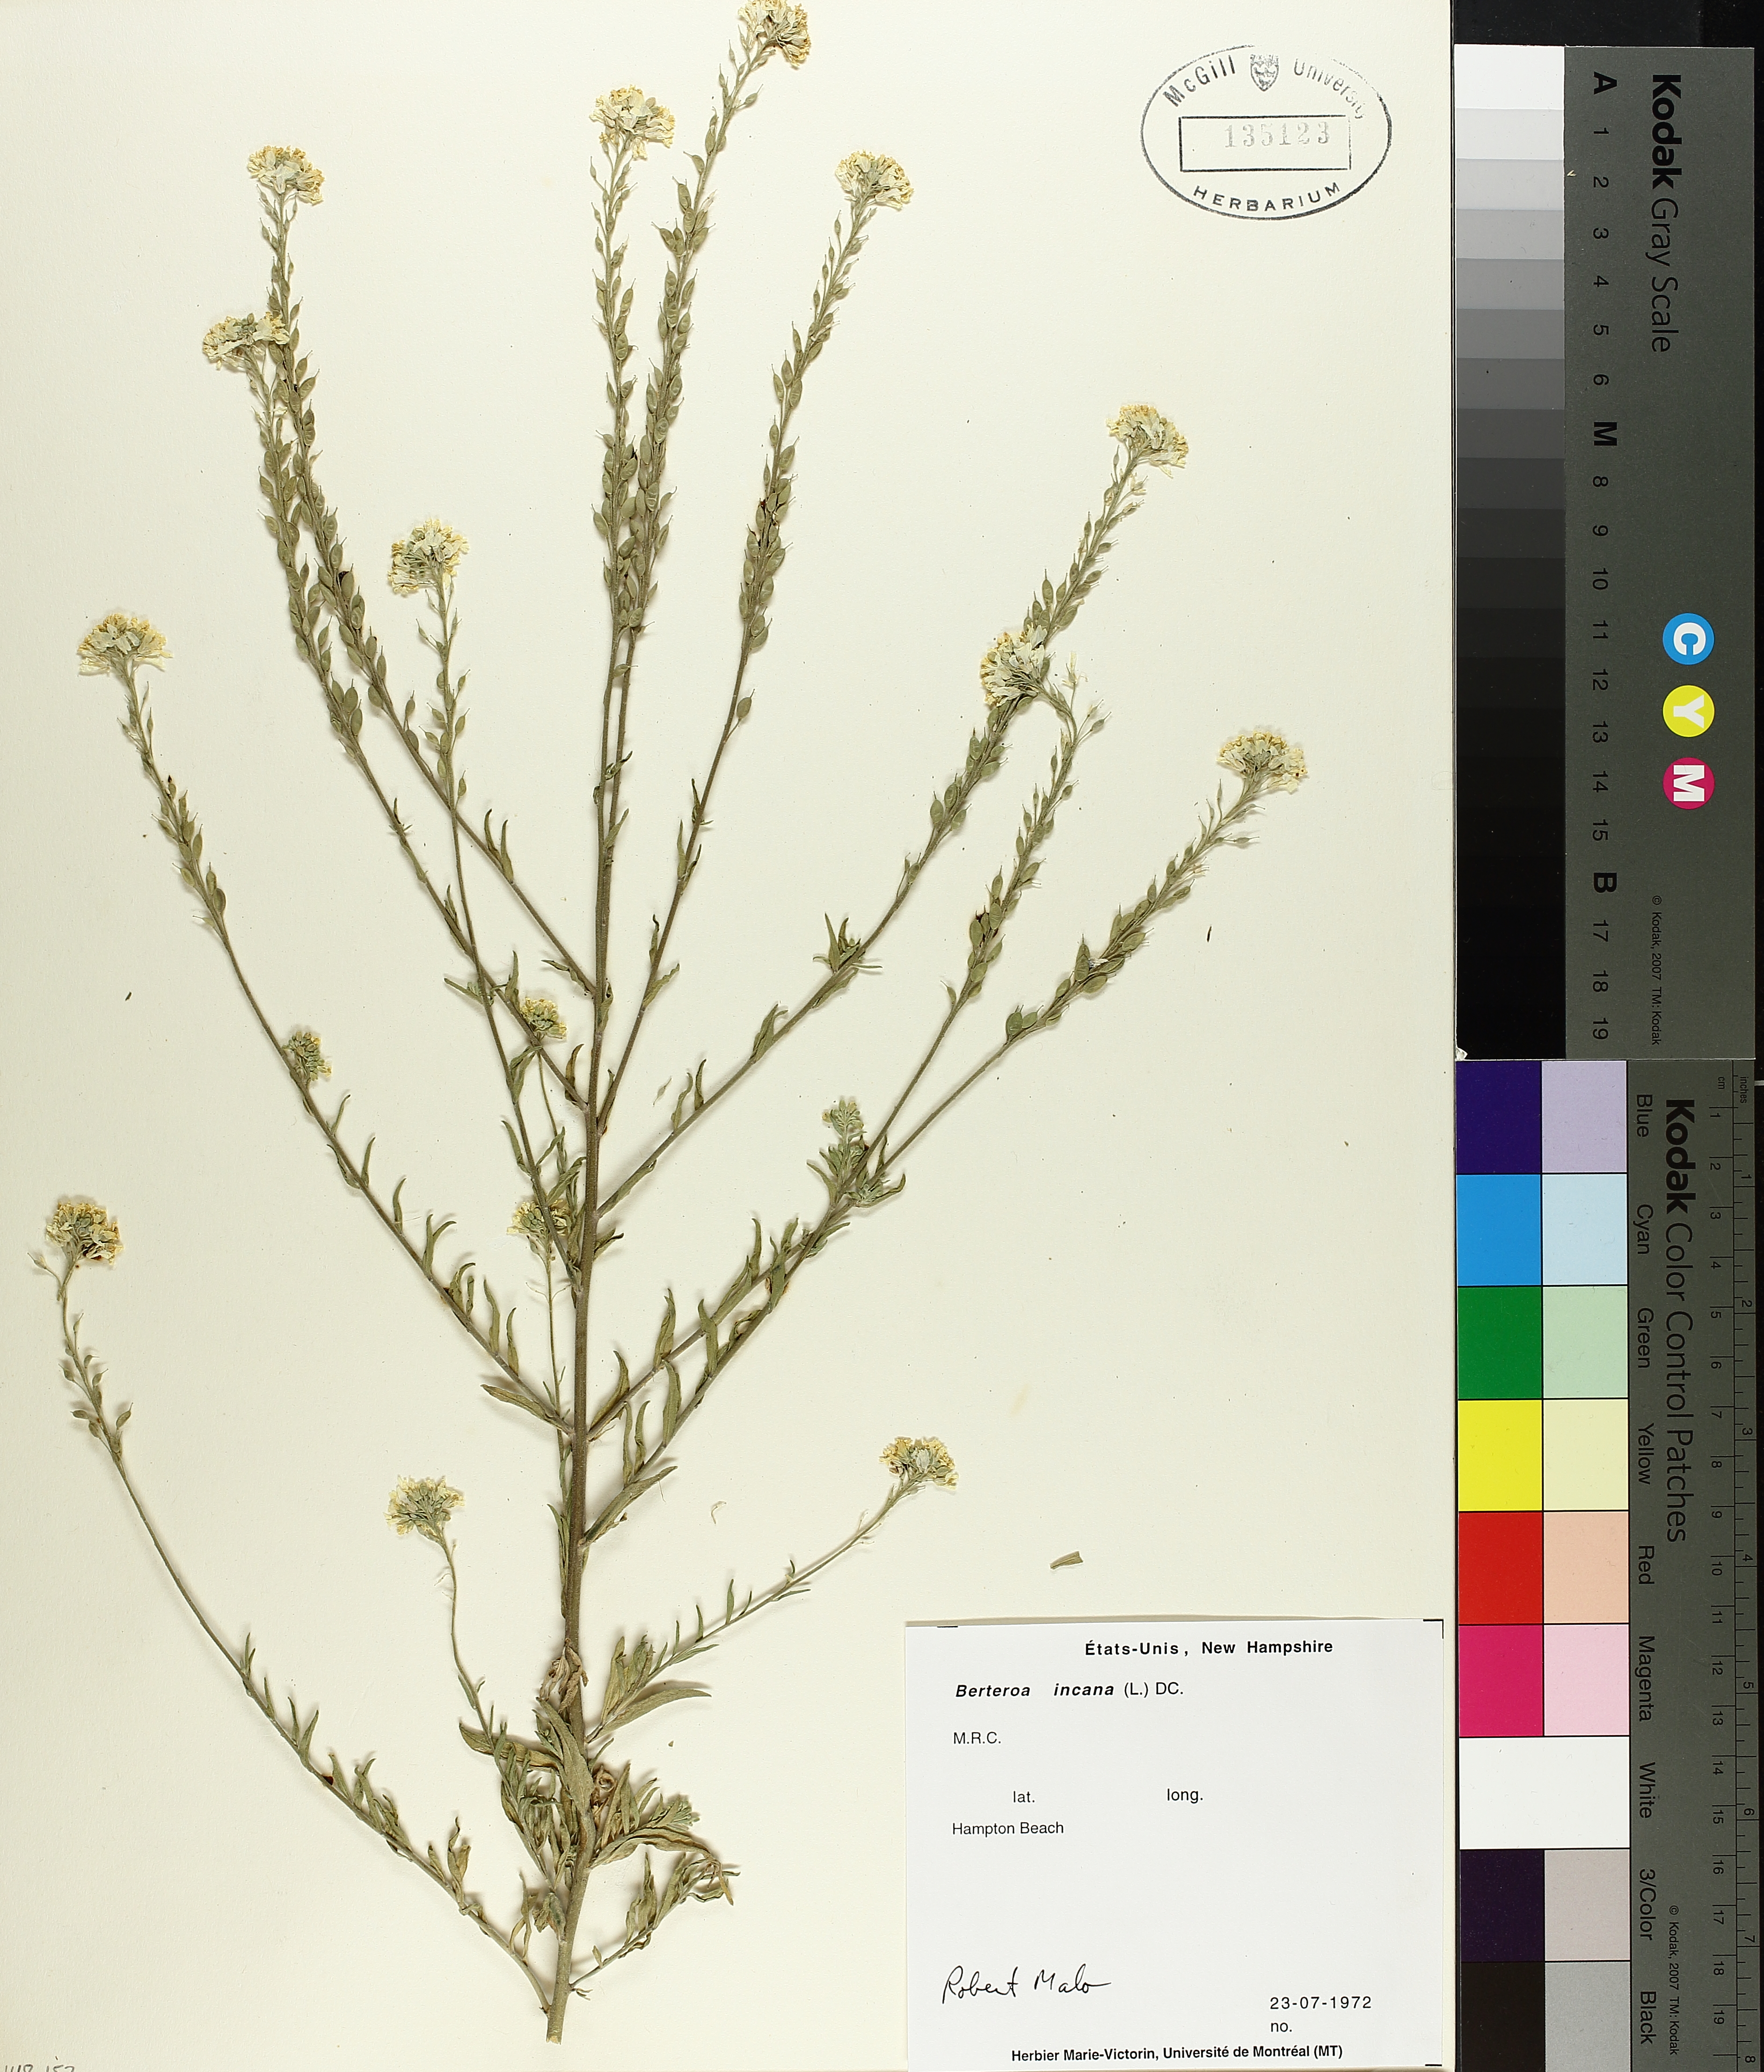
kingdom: Plantae
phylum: Tracheophyta
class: Liliopsida
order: Poales
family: Cyperaceae
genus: Carex
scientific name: Carex atherodes
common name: Wheat sedge
